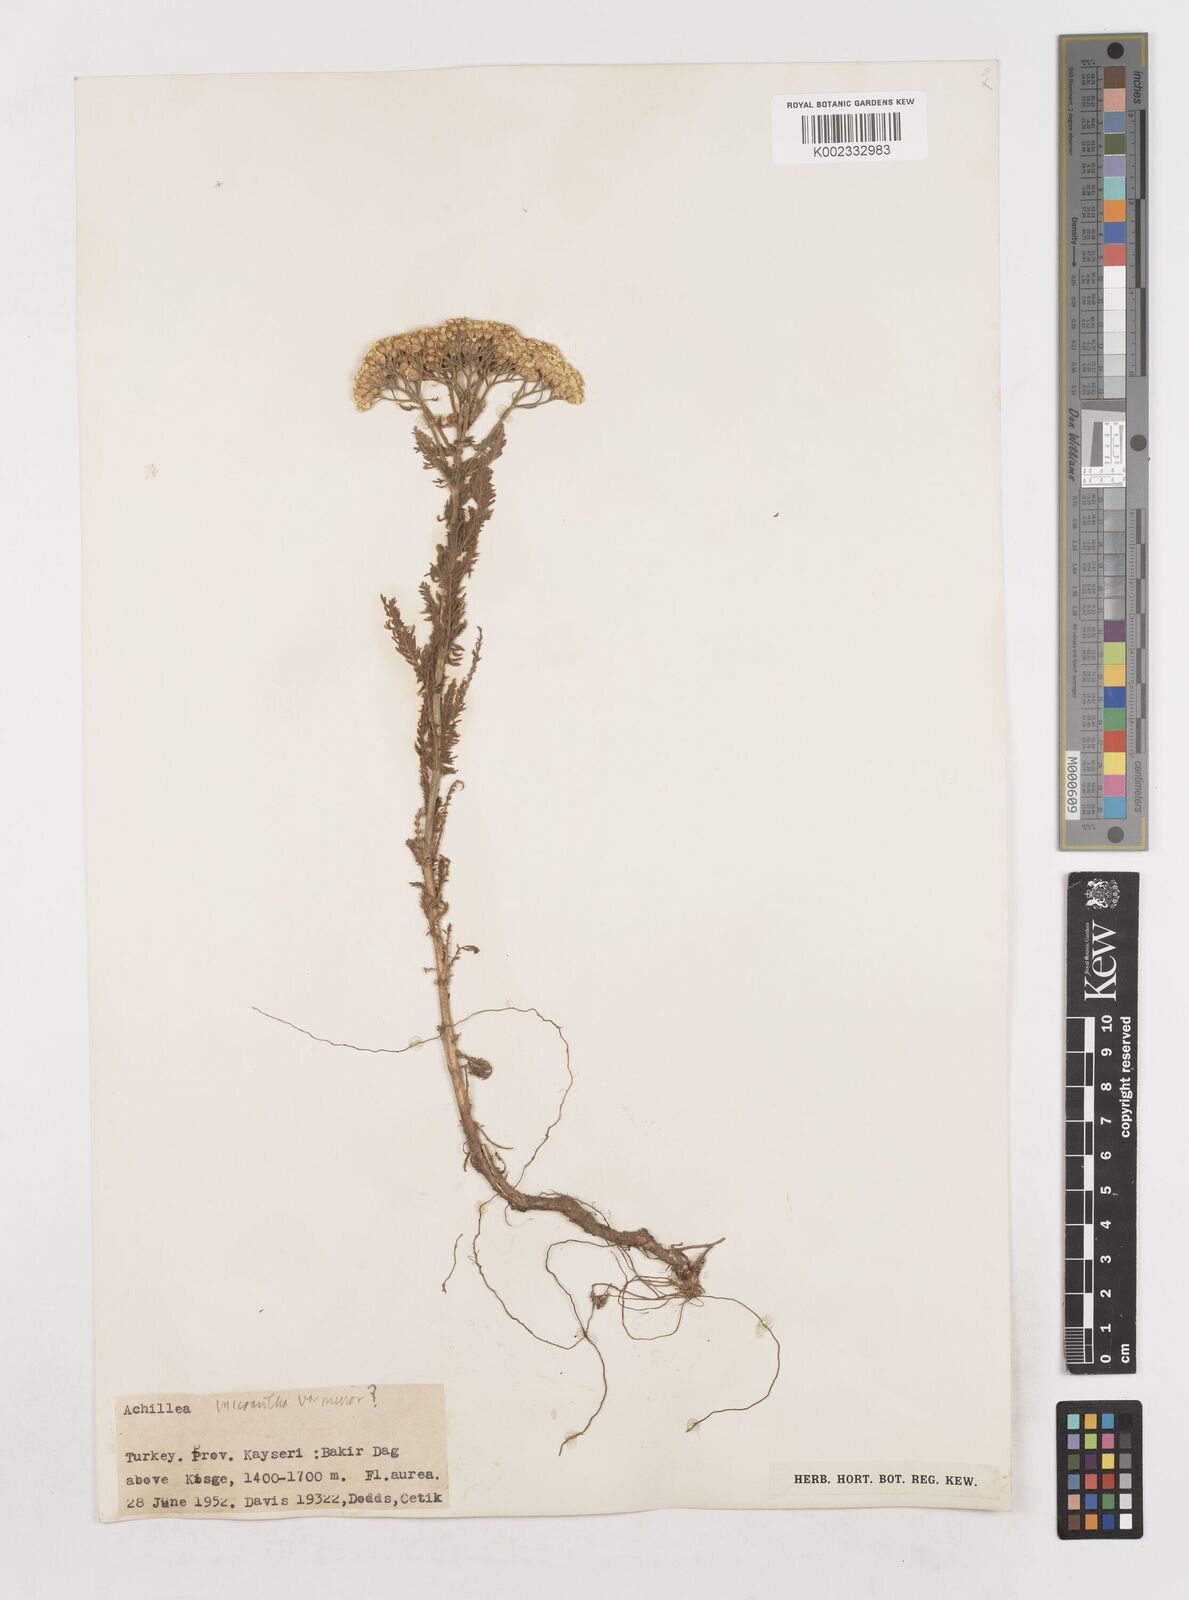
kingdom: Plantae
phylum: Tracheophyta
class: Magnoliopsida
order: Asterales
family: Asteraceae
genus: Achillea
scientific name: Achillea arabica
